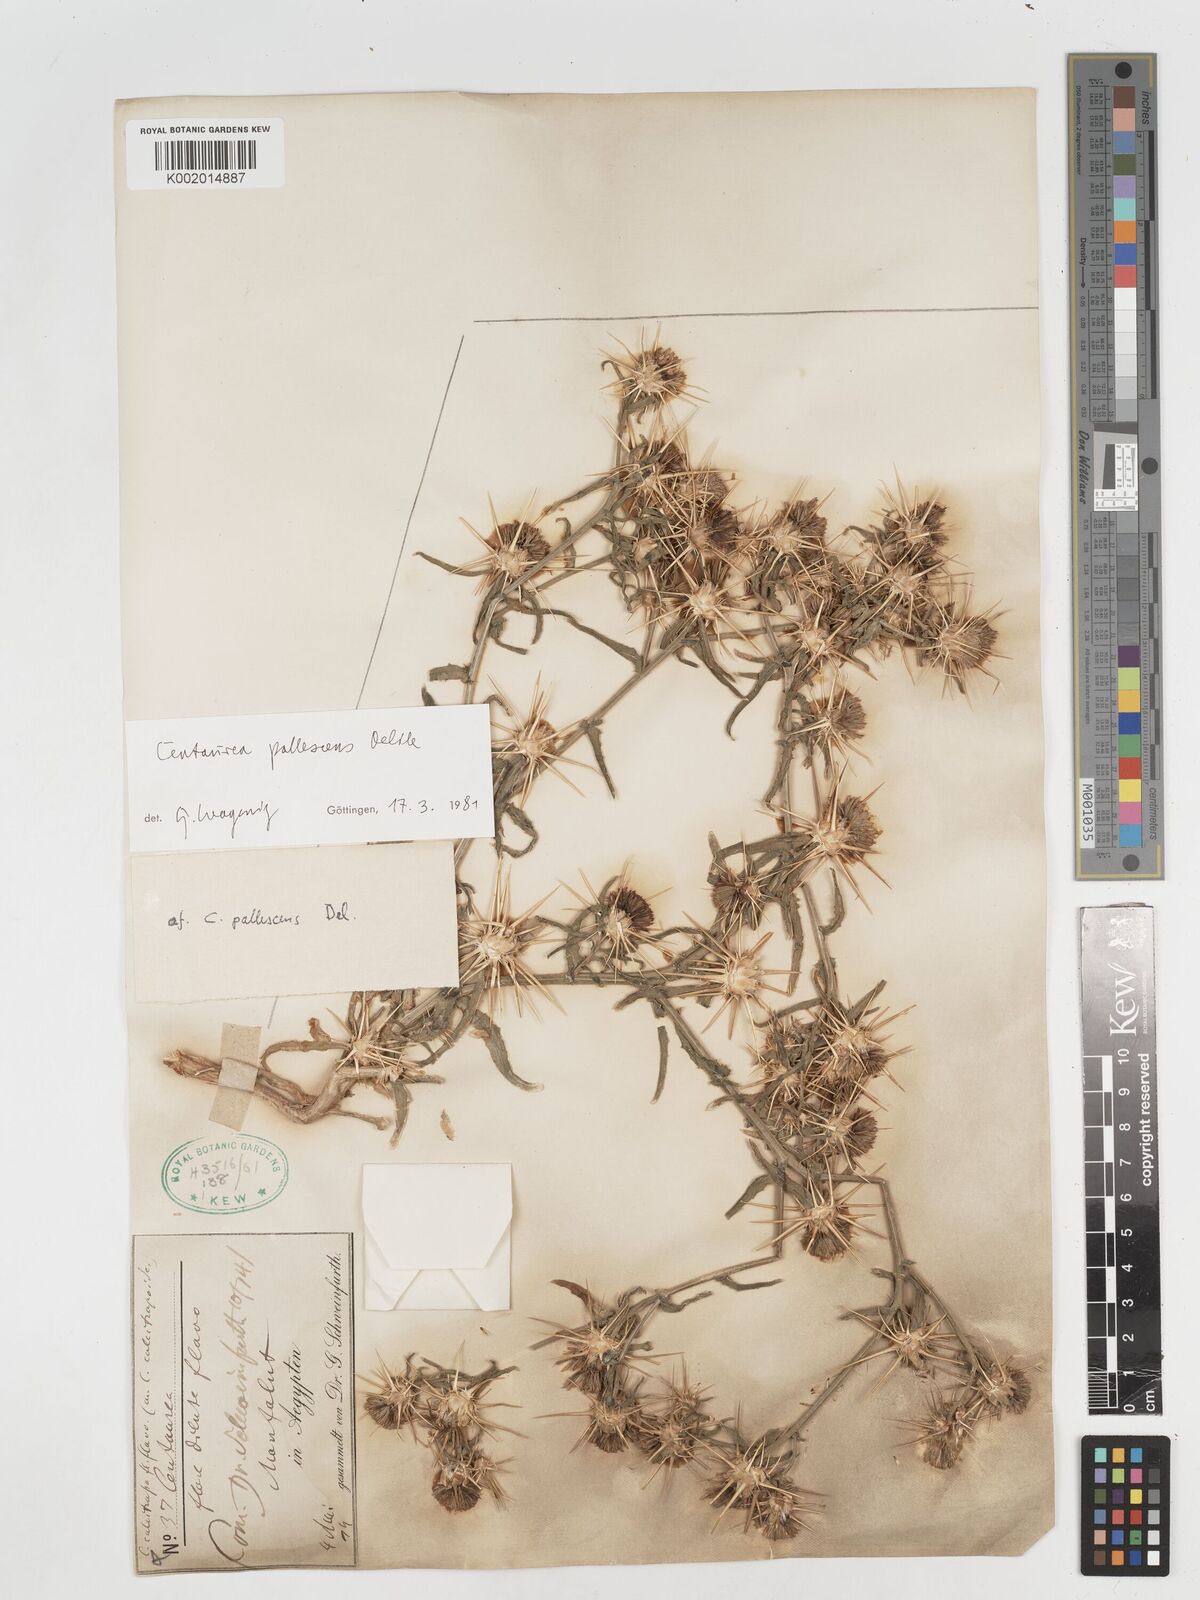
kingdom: Plantae
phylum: Tracheophyta
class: Magnoliopsida
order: Asterales
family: Asteraceae
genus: Centaurea
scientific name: Centaurea pallescens
